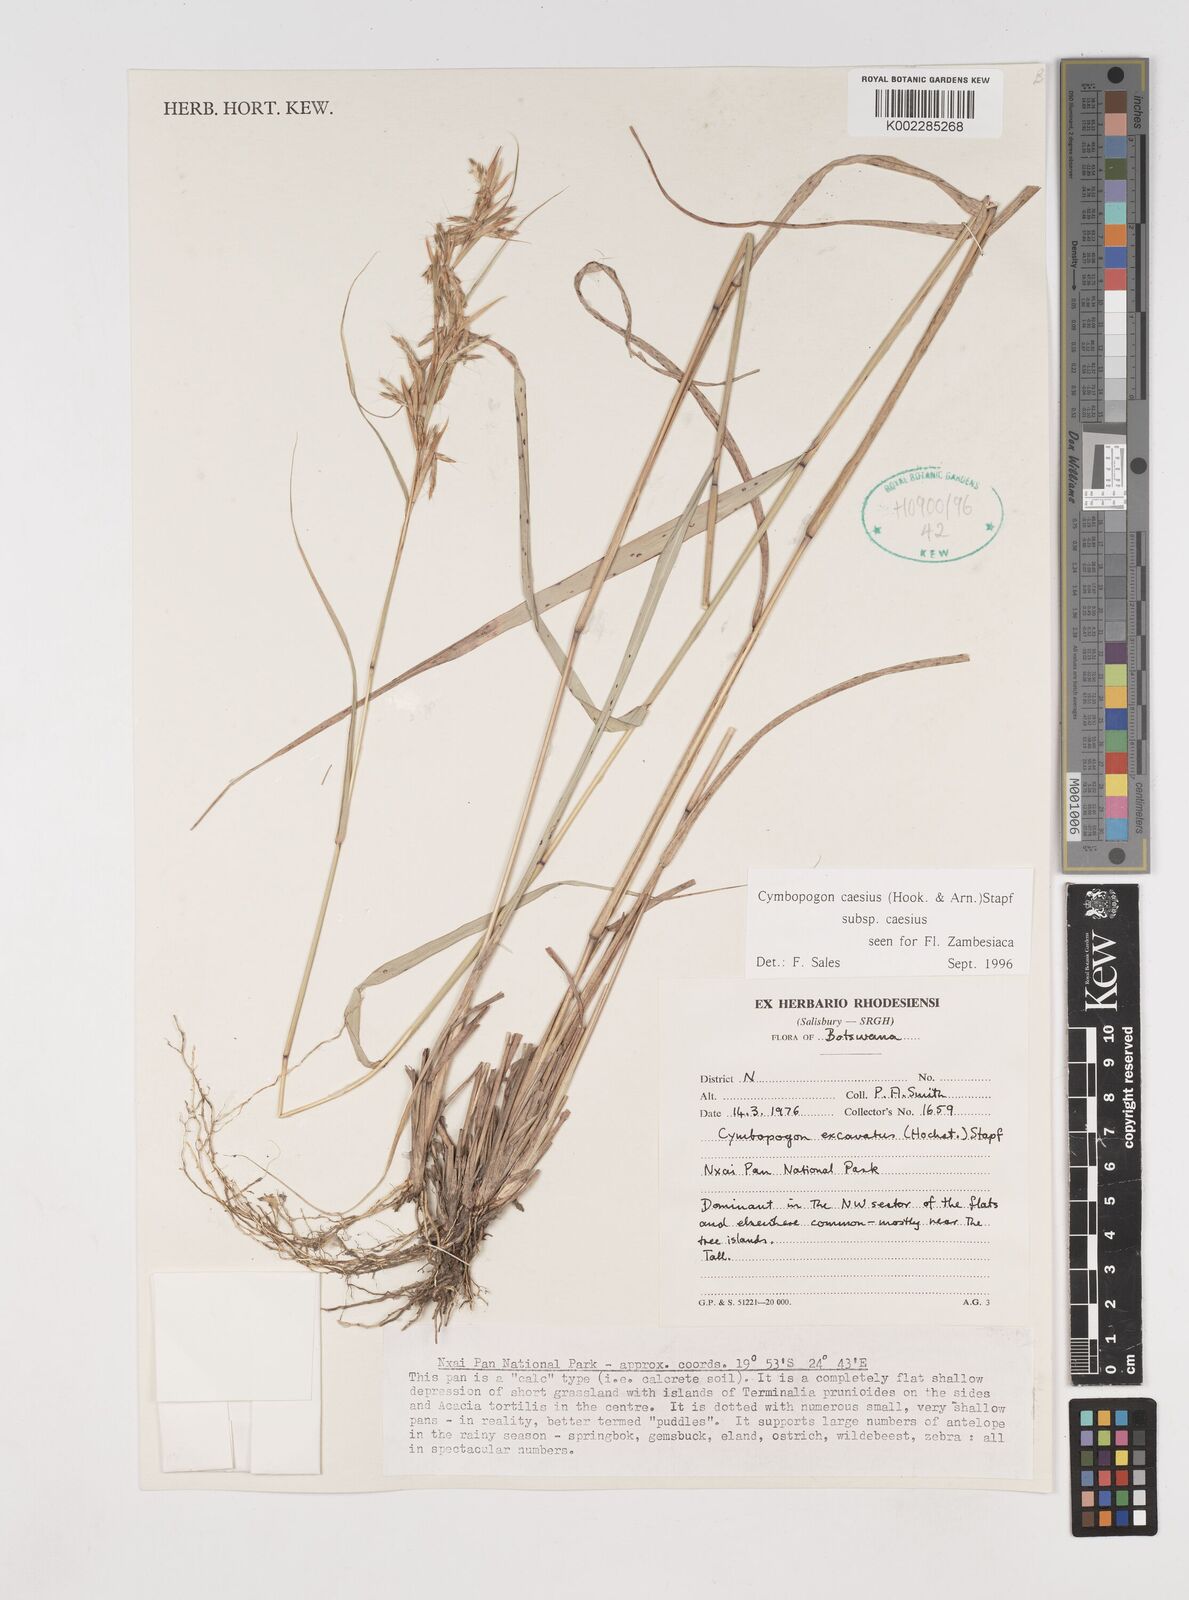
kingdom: Plantae
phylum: Tracheophyta
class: Liliopsida
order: Poales
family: Poaceae
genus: Cymbopogon
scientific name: Cymbopogon caesius
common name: Kachi grass
